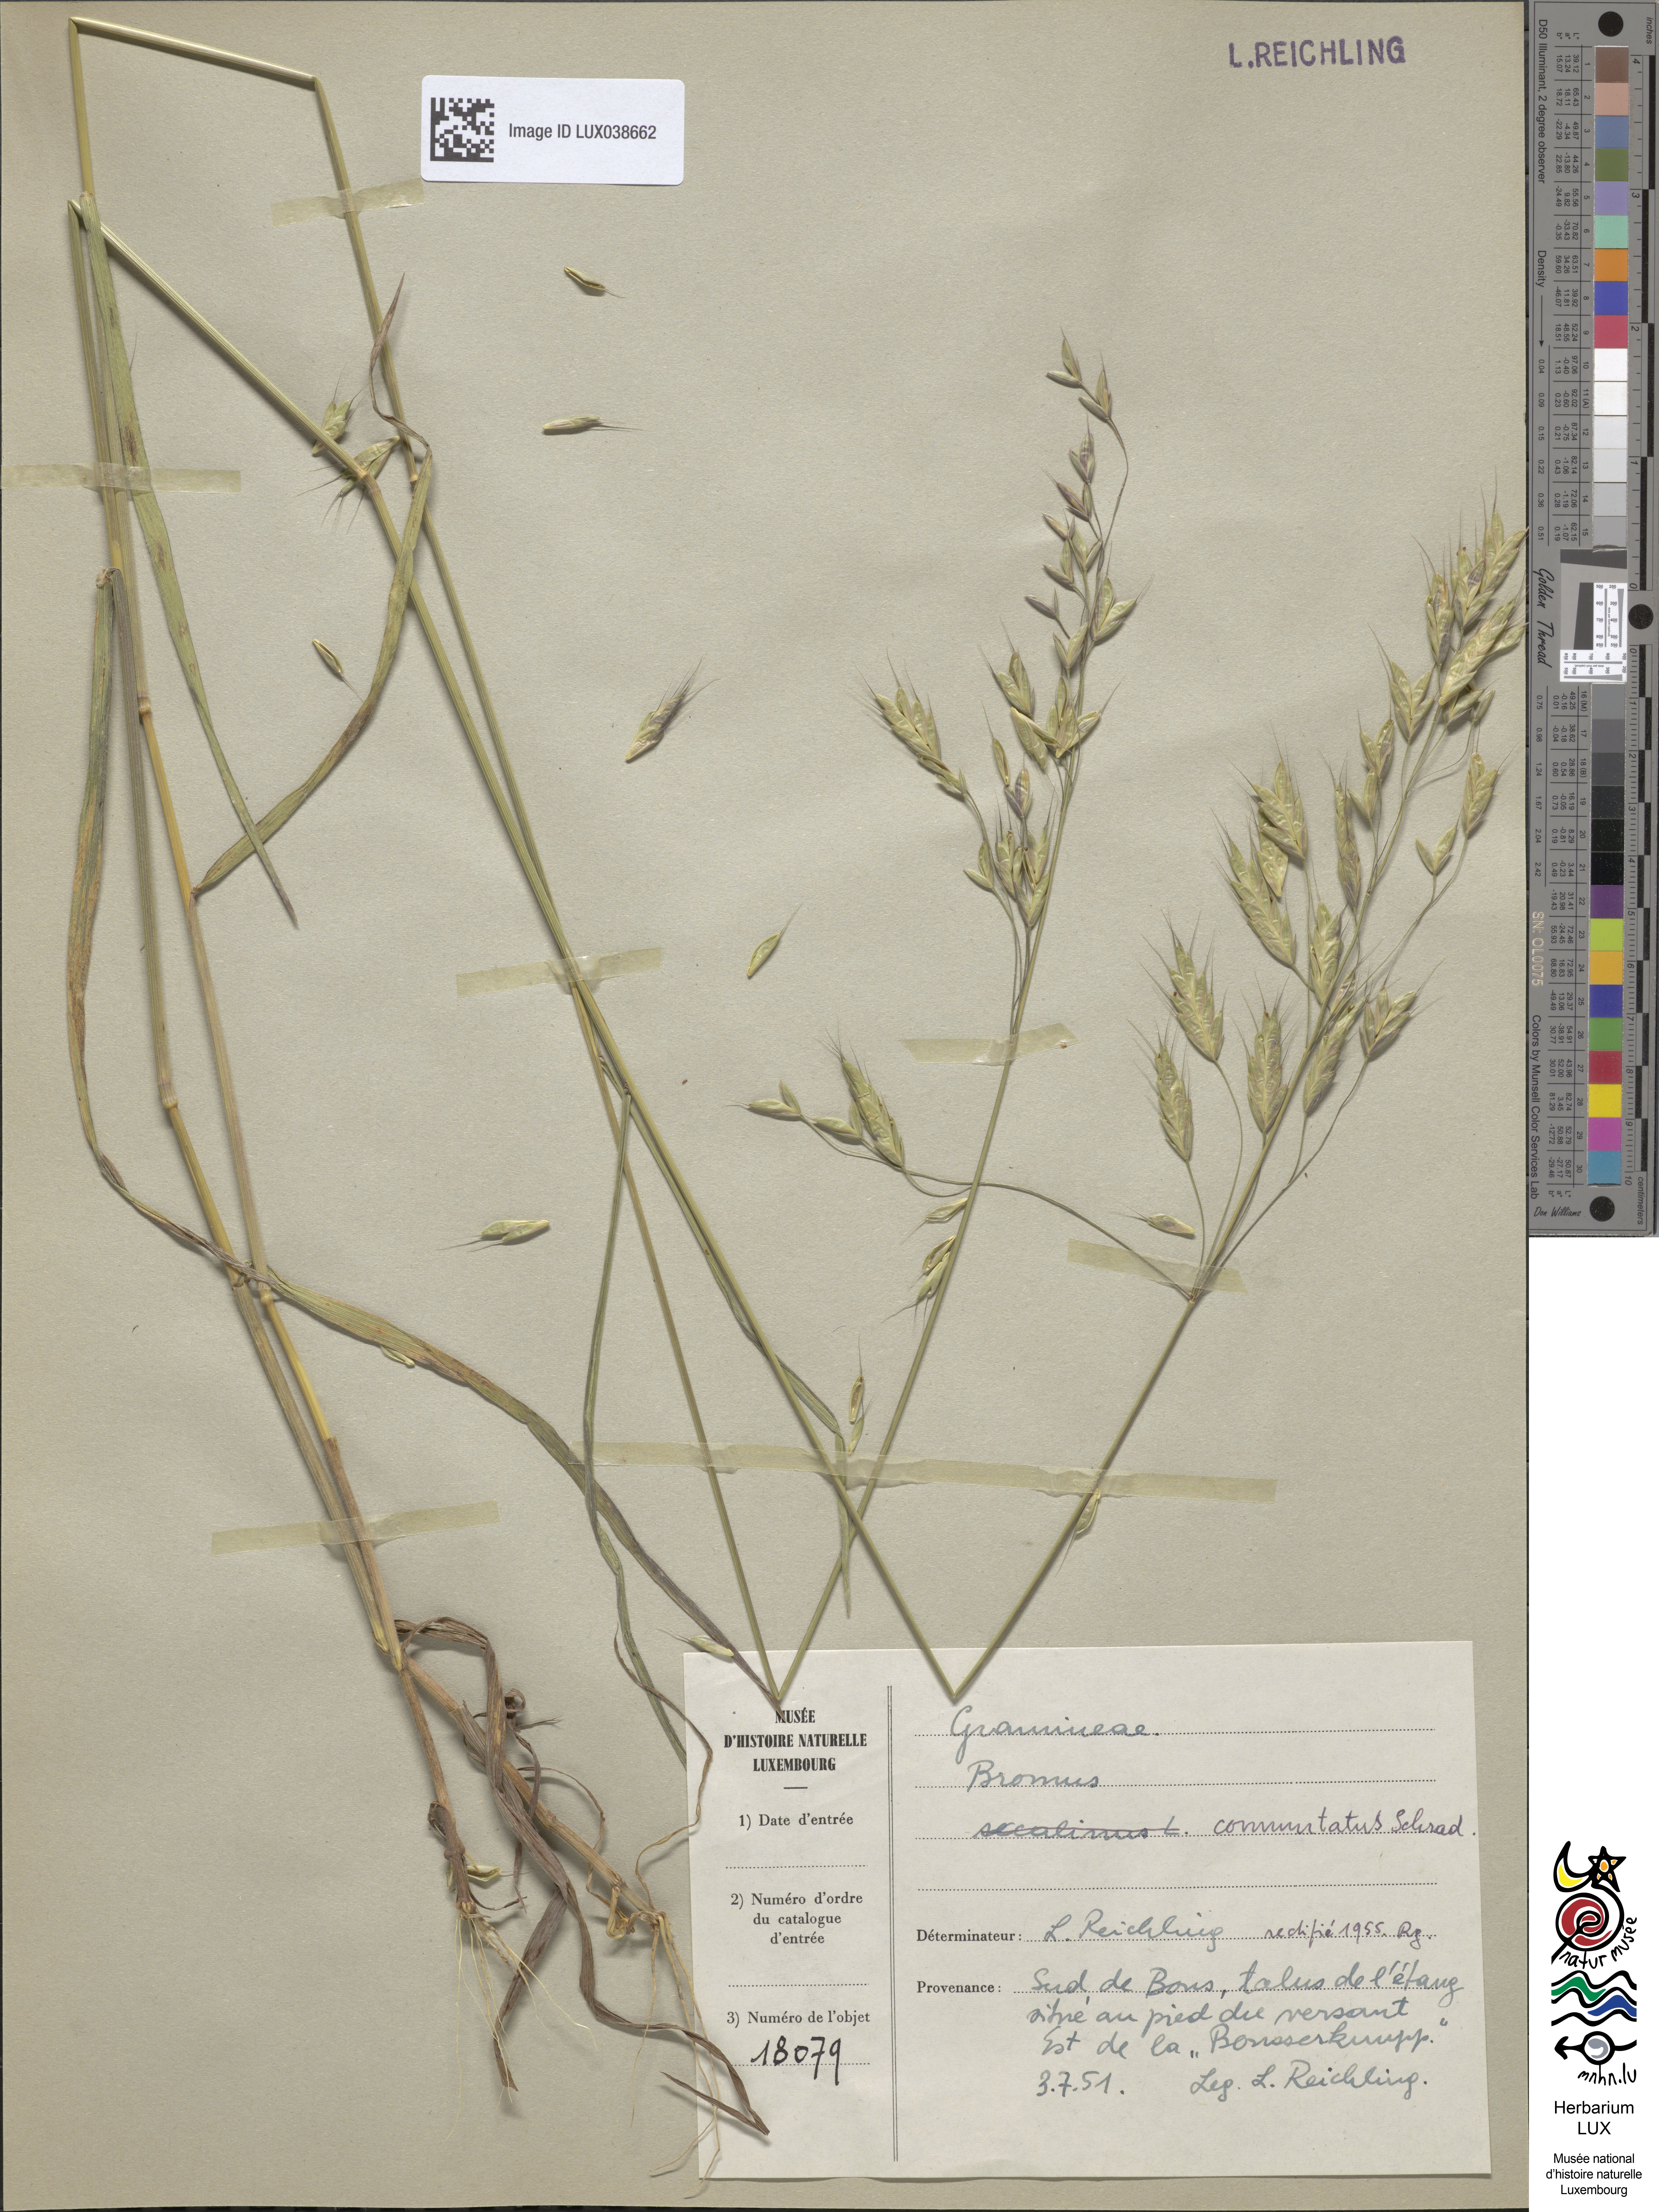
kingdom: Plantae
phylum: Tracheophyta
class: Liliopsida
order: Poales
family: Poaceae
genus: Bromus
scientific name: Bromus secalinus
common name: Rye brome
